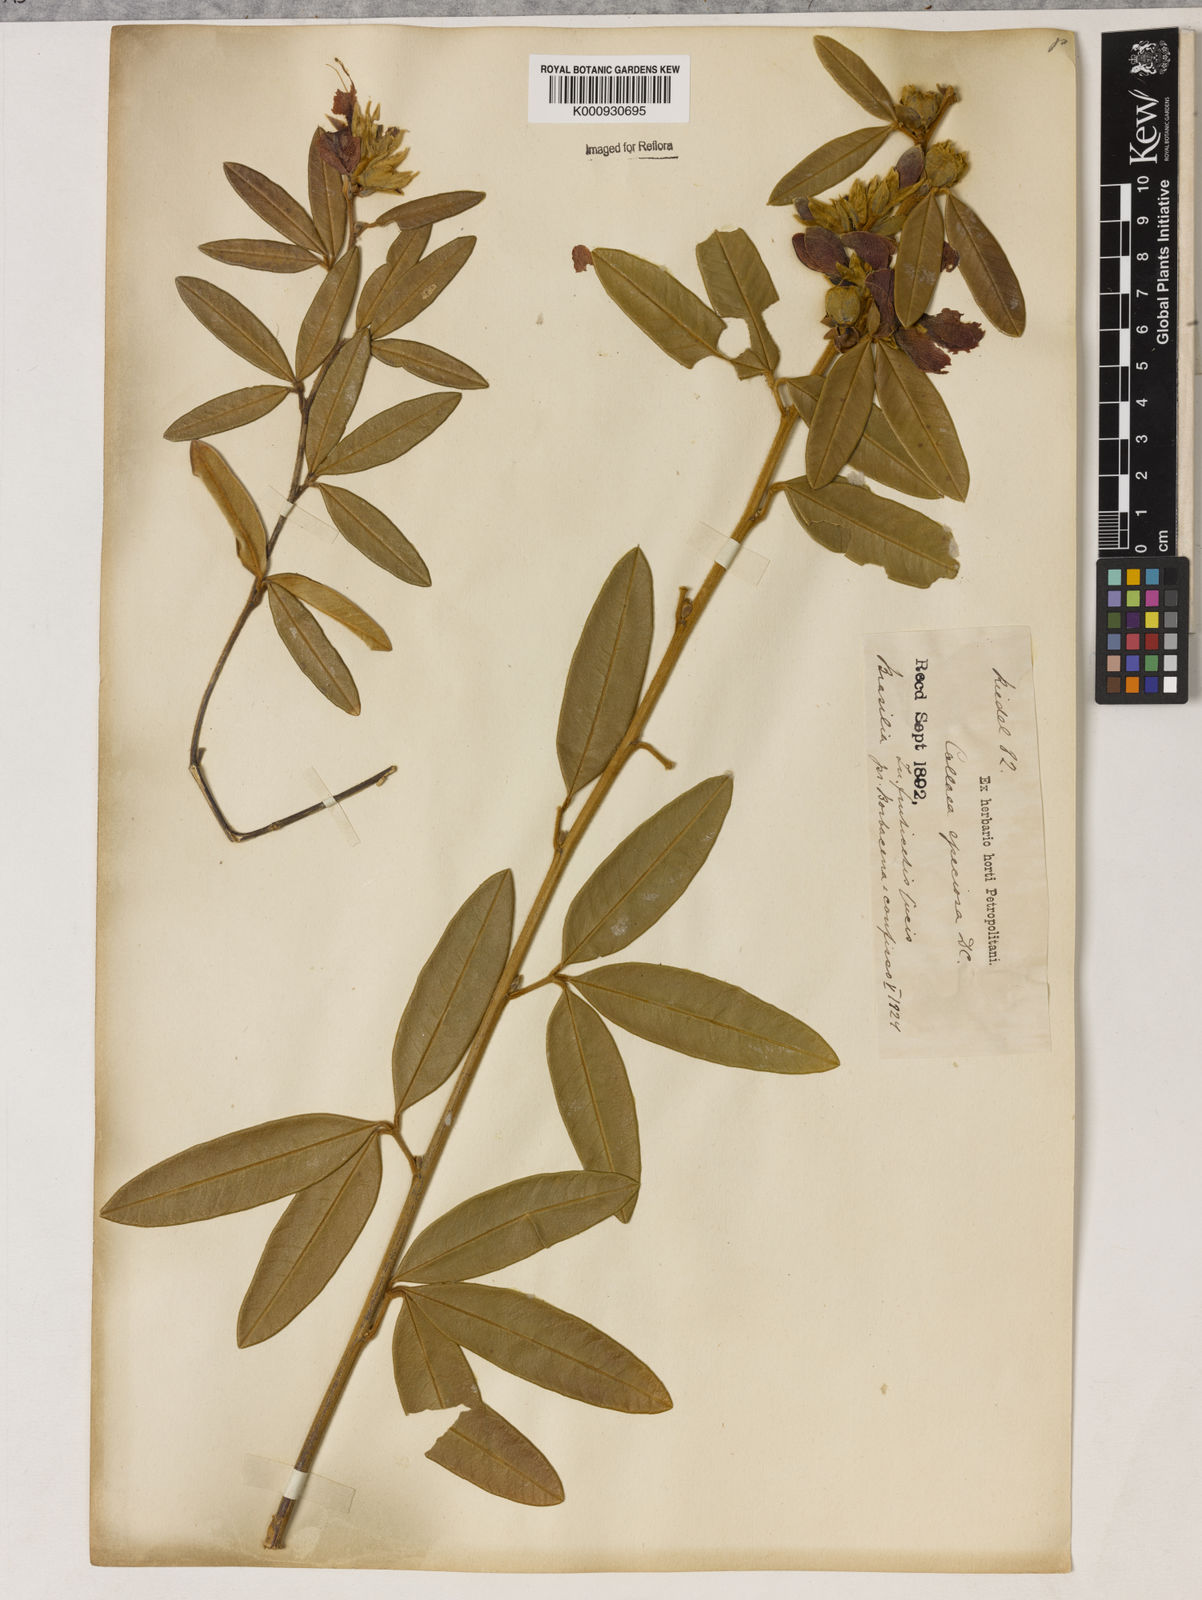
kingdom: Plantae
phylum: Tracheophyta
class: Magnoliopsida
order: Lamiales
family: Lamiaceae
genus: Coleus
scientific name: Coleus barbatus
